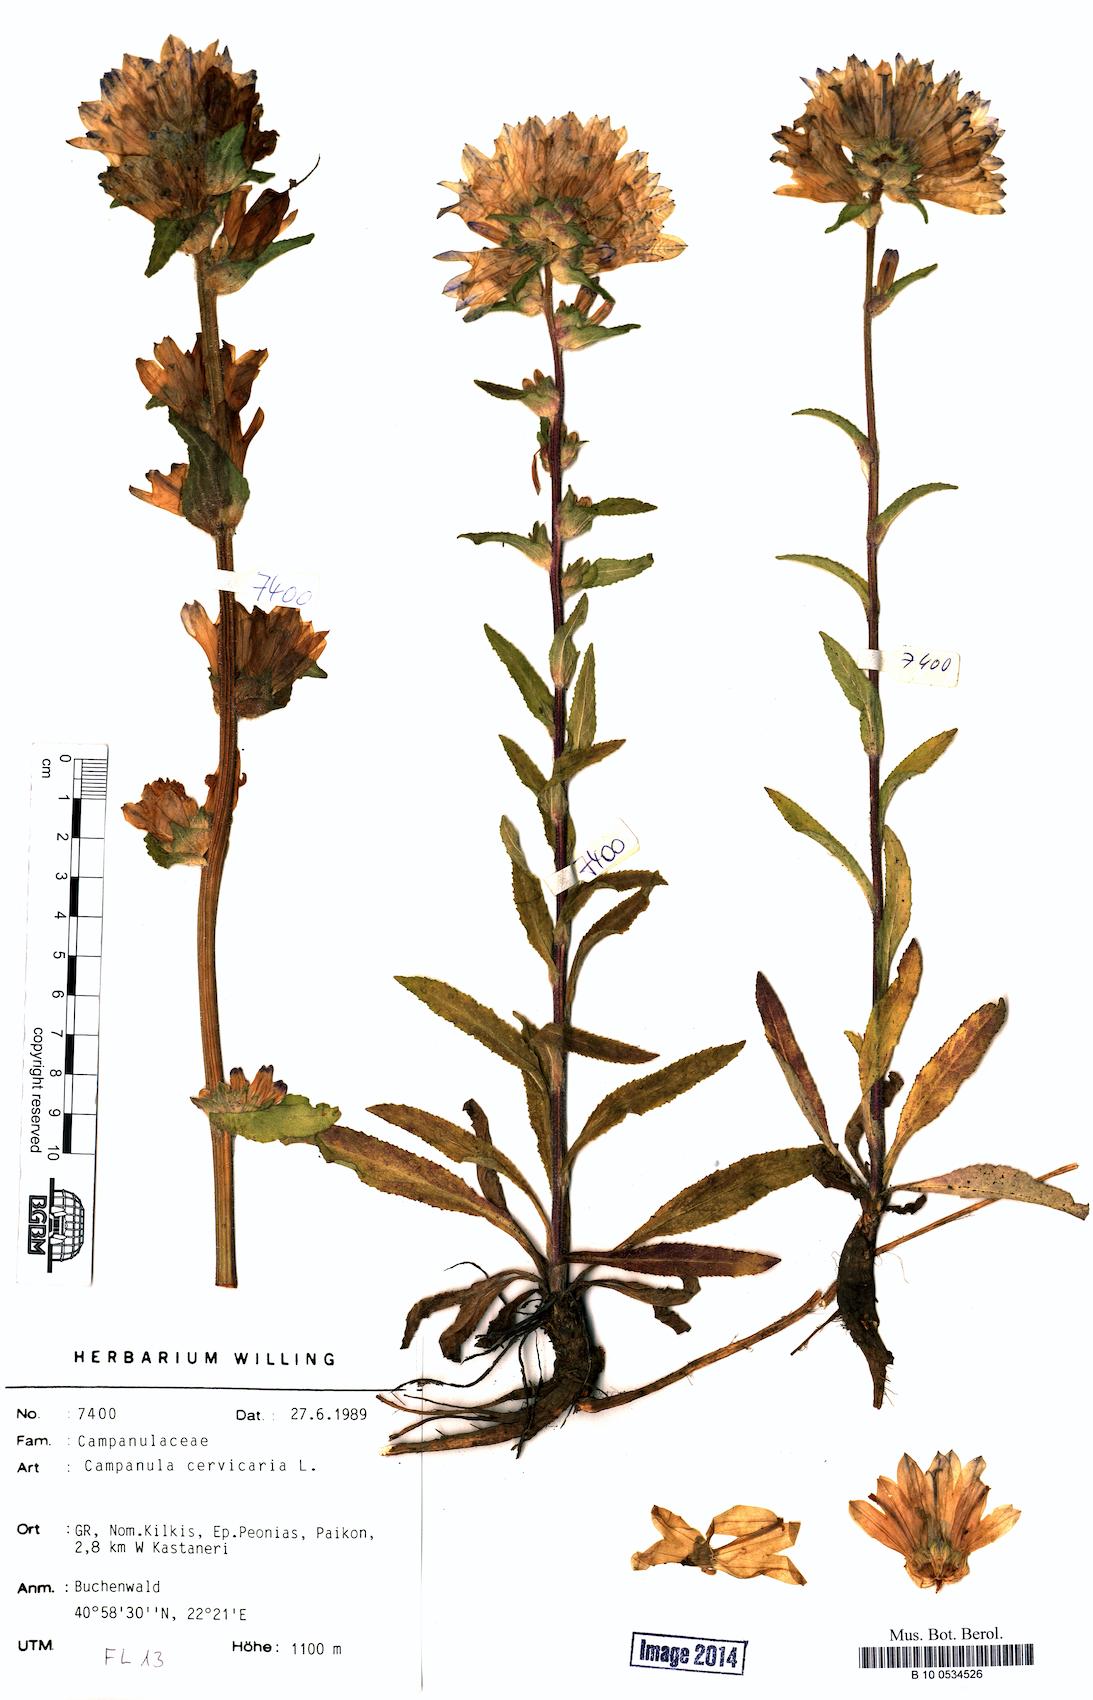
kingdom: Plantae
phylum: Tracheophyta
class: Magnoliopsida
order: Asterales
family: Campanulaceae
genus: Campanula
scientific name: Campanula cervicaria
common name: Bristly bellflower
